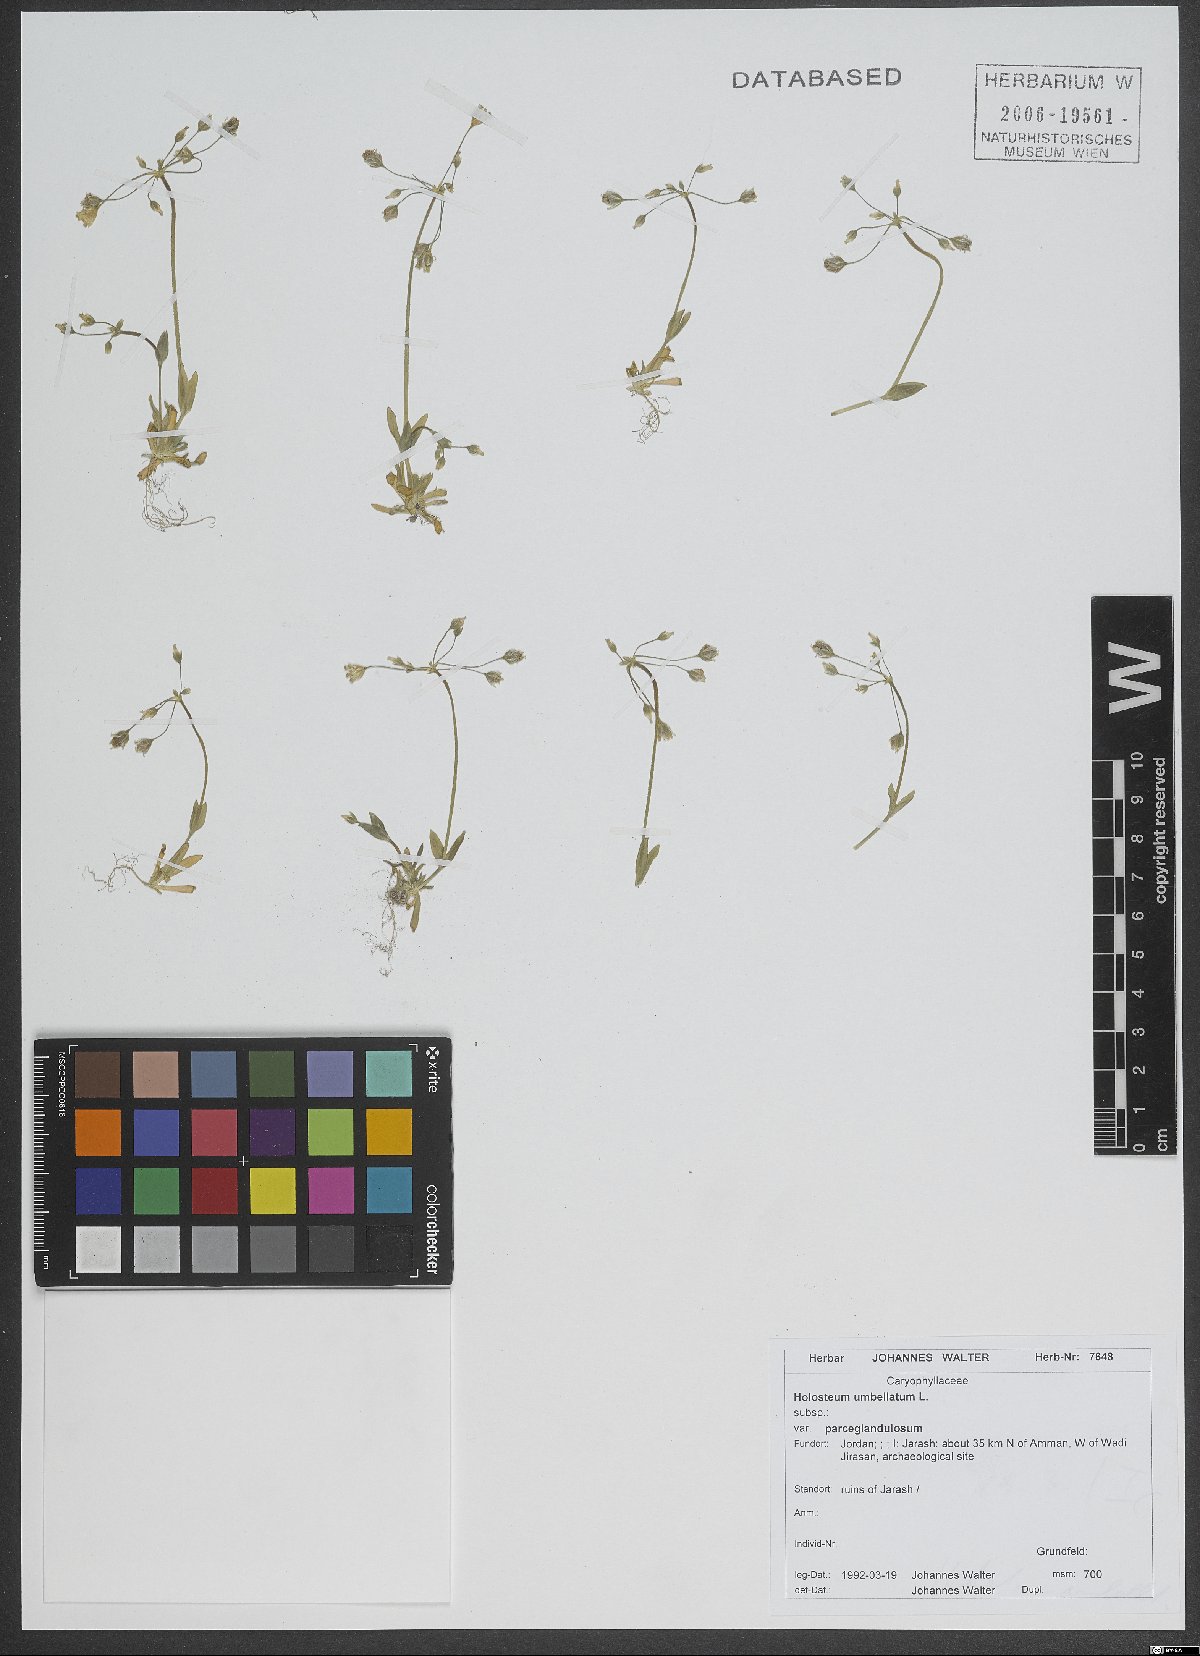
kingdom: Plantae
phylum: Tracheophyta
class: Magnoliopsida
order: Caryophyllales
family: Caryophyllaceae
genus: Holosteum
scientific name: Holosteum umbellatum
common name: Jagged chickweed
